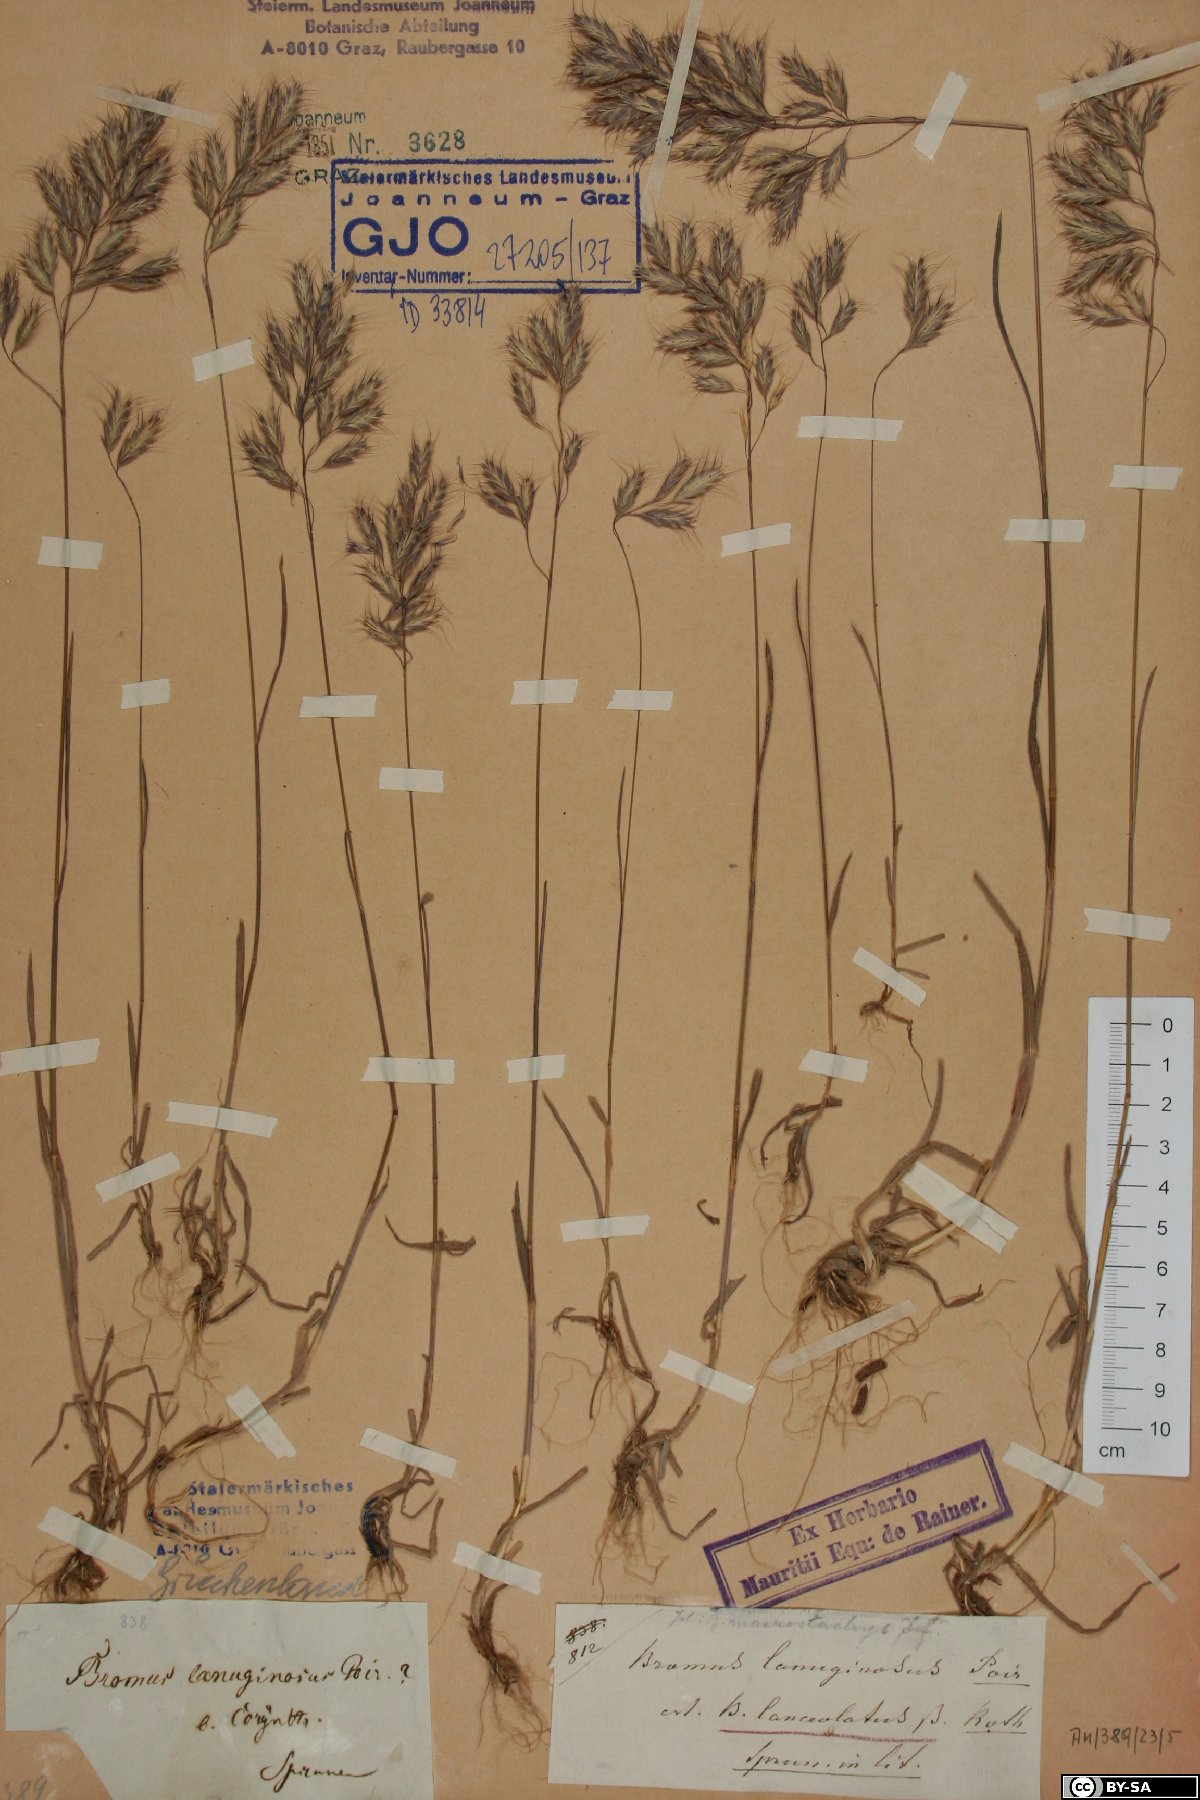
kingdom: Plantae
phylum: Tracheophyta
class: Liliopsida
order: Poales
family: Poaceae
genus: Bromus
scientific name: Bromus lanceolatus
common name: Mediterranean brome
